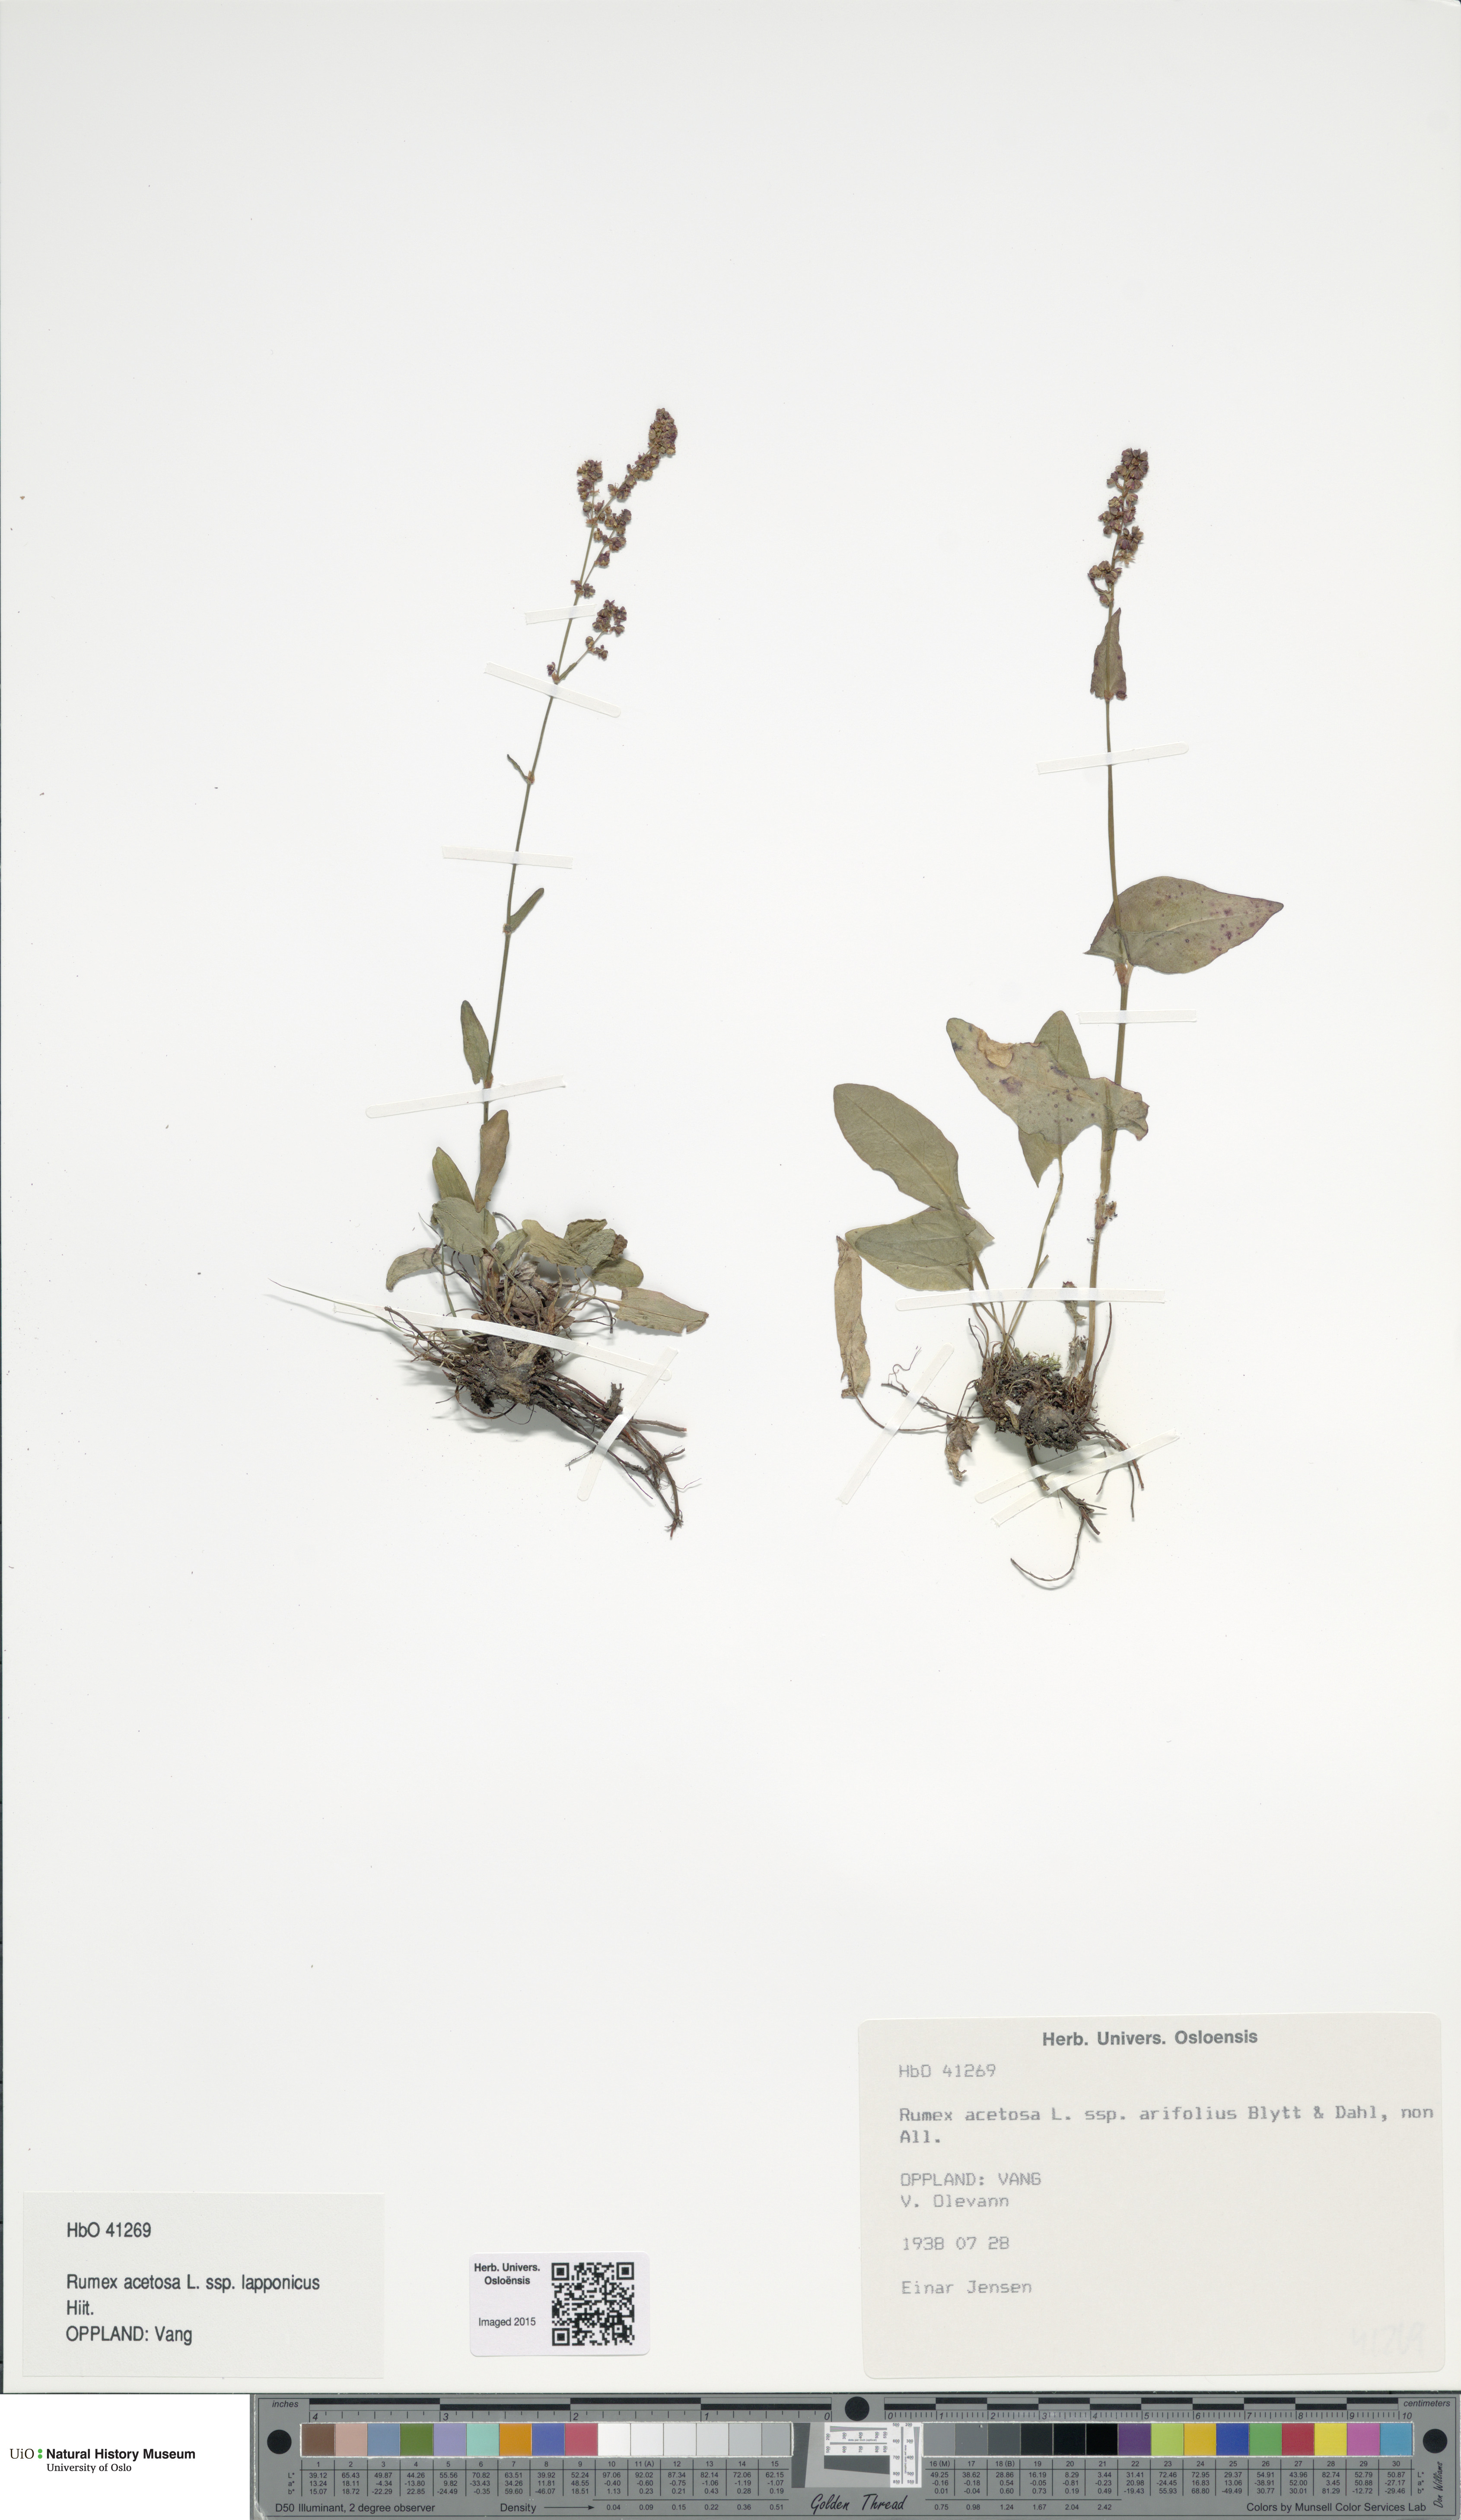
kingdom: Plantae
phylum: Tracheophyta
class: Magnoliopsida
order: Caryophyllales
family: Polygonaceae
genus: Rumex
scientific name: Rumex arifolius
